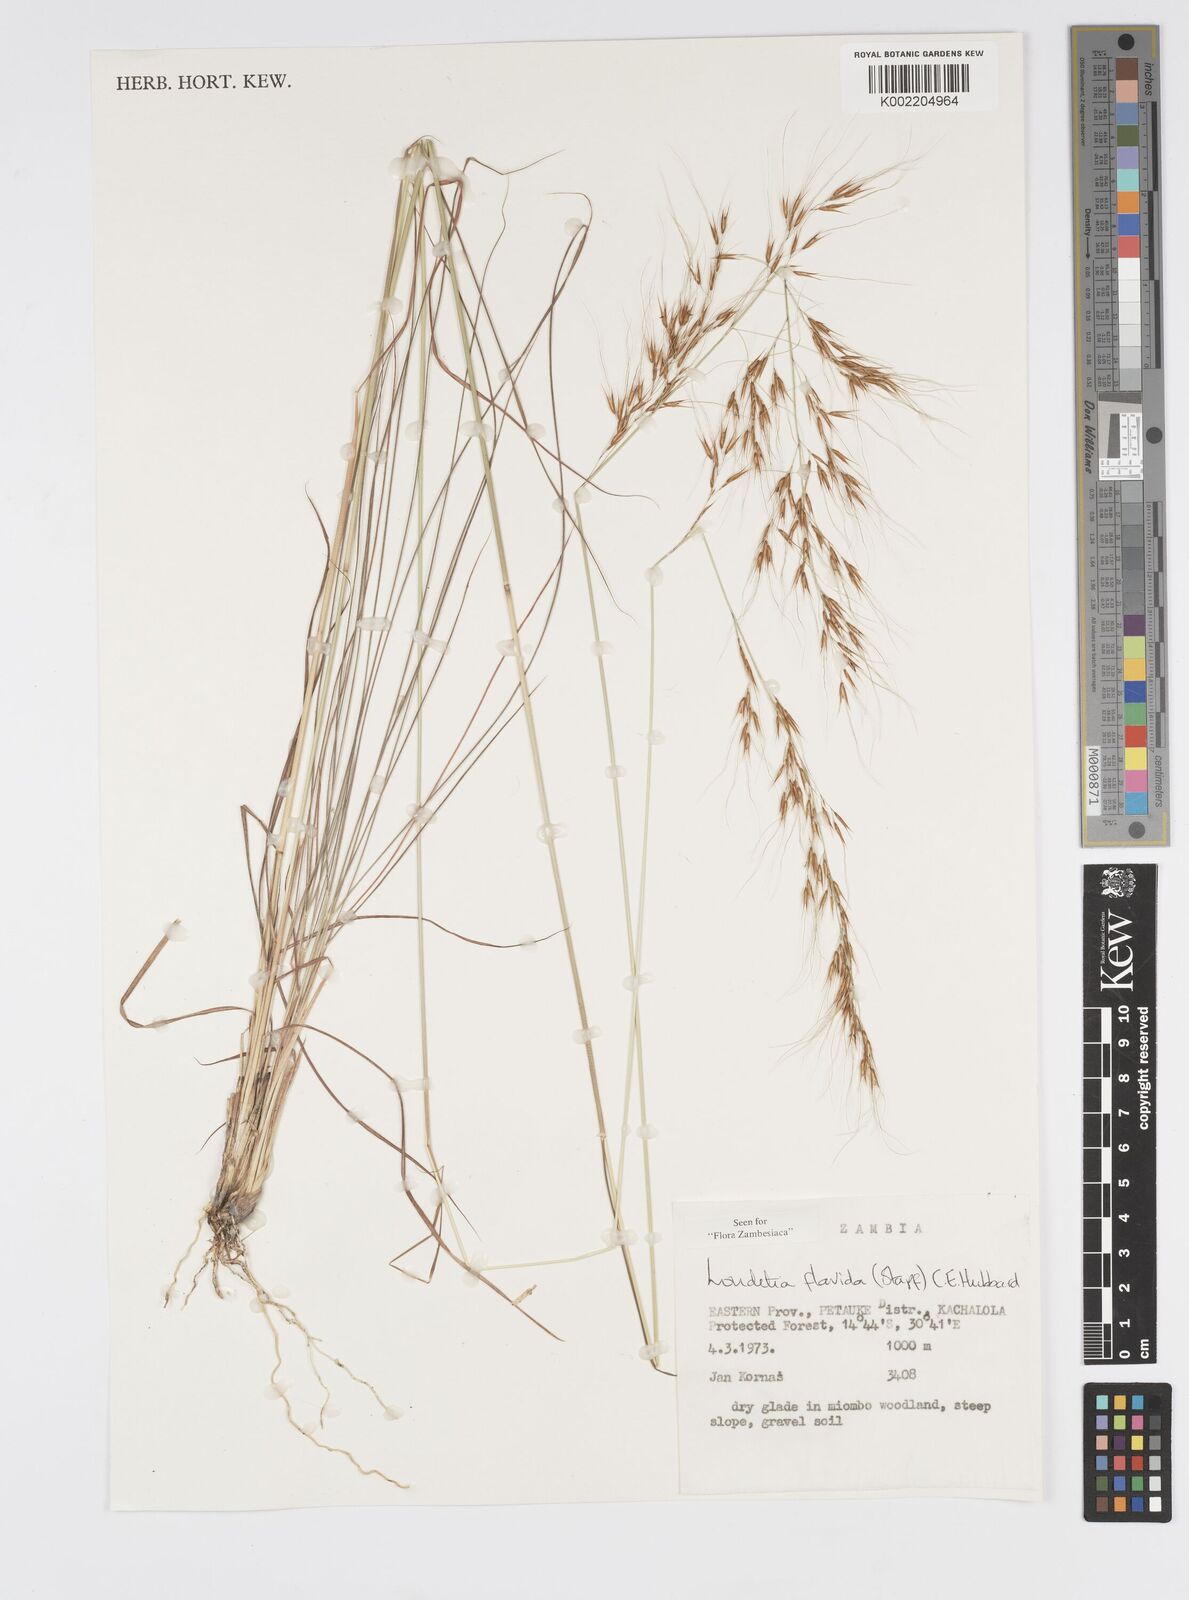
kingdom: Plantae
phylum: Tracheophyta
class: Liliopsida
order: Poales
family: Poaceae
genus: Loudetia
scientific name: Loudetia flavida
